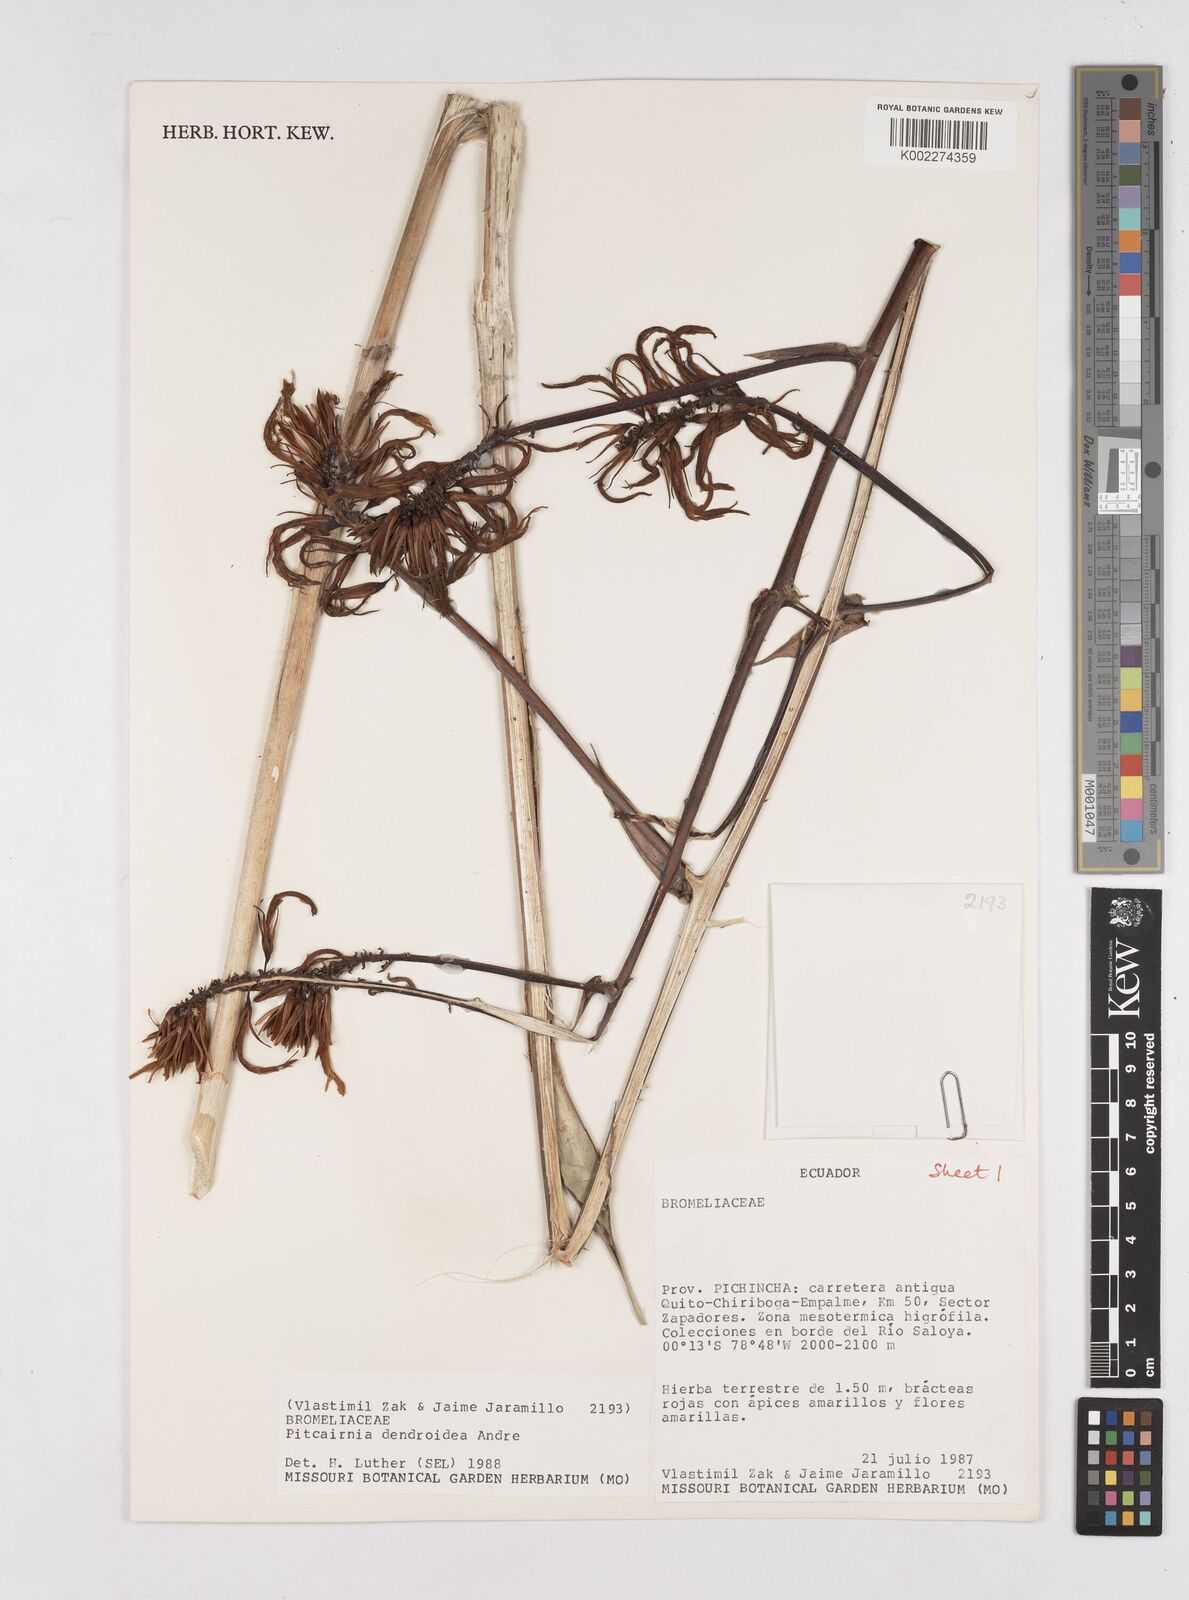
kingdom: Plantae
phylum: Tracheophyta
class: Liliopsida
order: Poales
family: Bromeliaceae
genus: Pitcairnia
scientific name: Pitcairnia dendroidea
